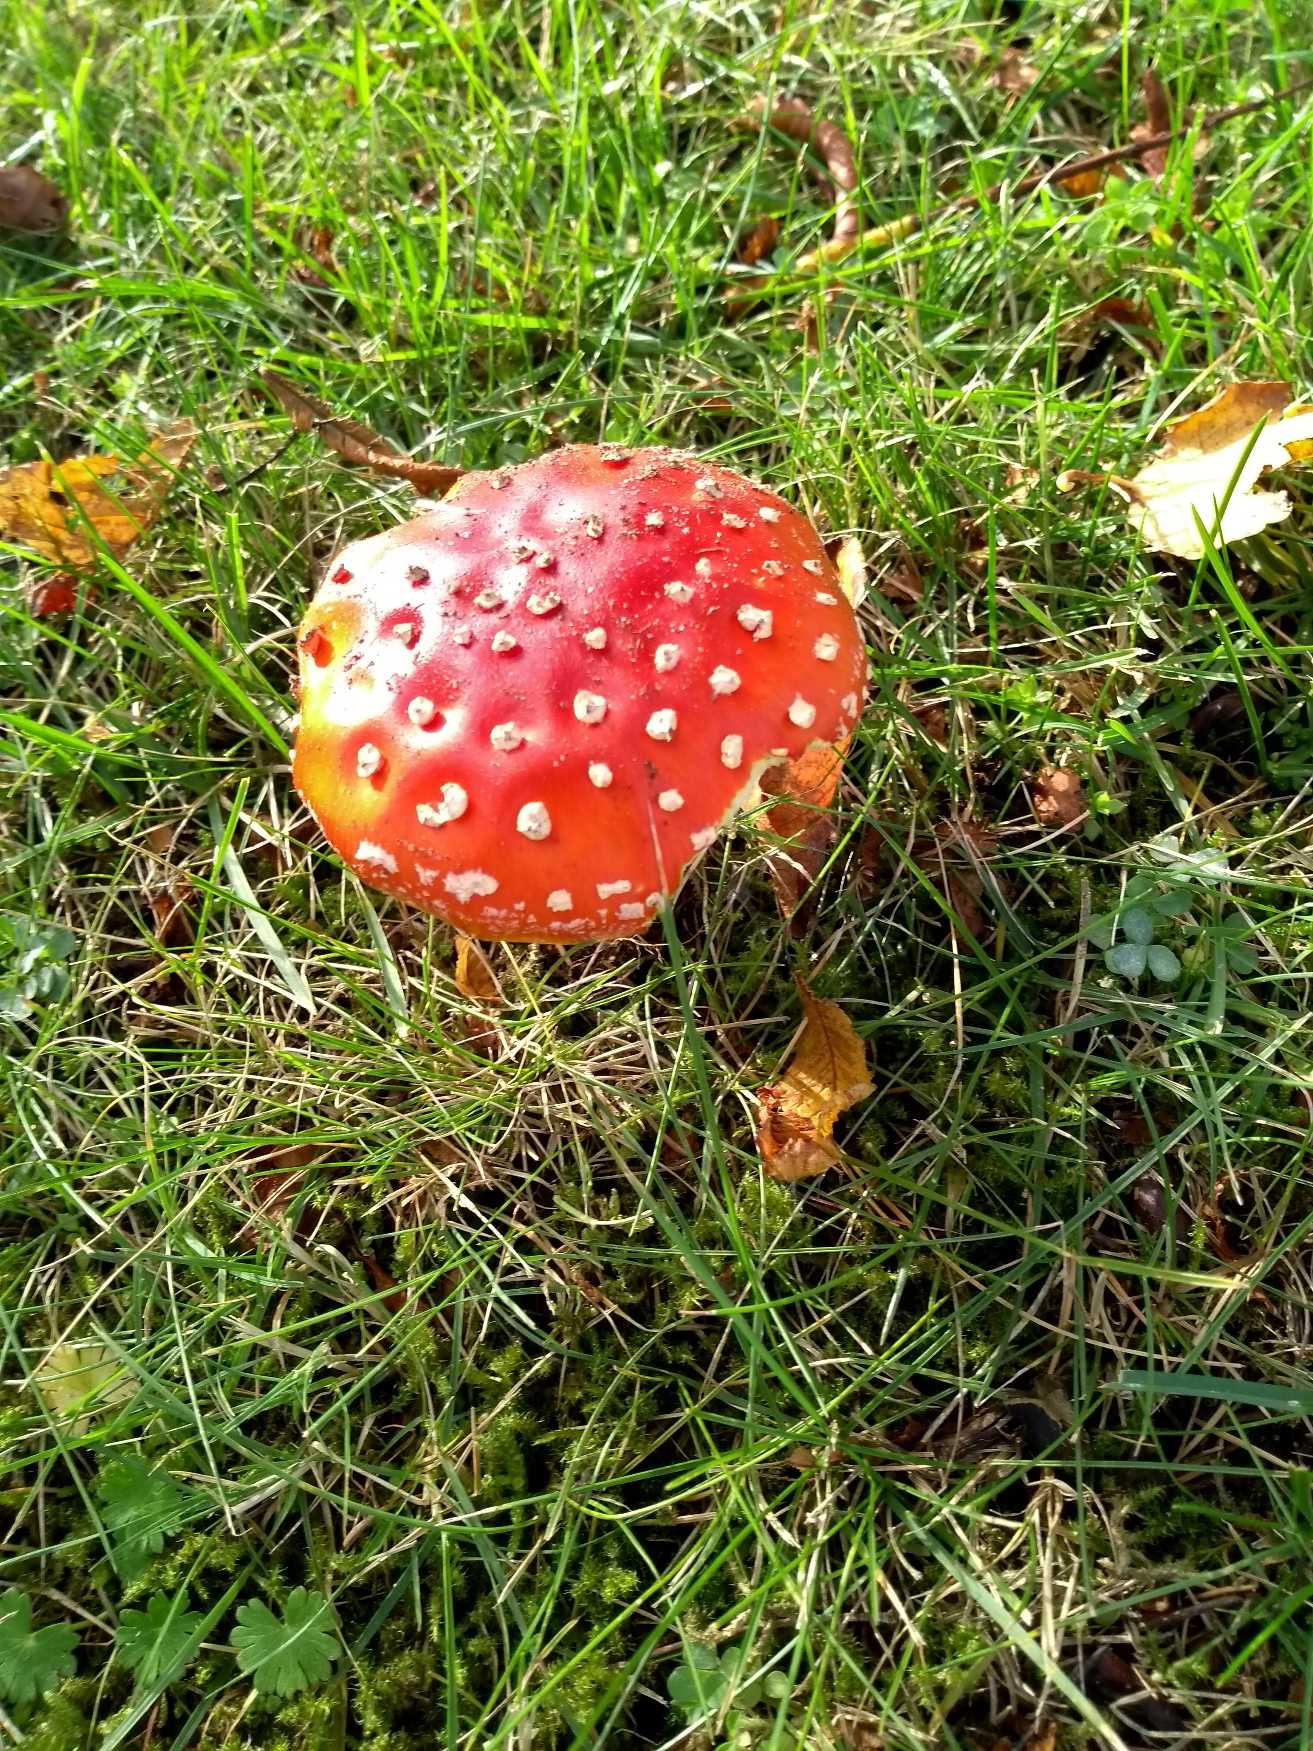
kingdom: Fungi
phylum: Basidiomycota
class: Agaricomycetes
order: Agaricales
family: Amanitaceae
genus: Amanita
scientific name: Amanita muscaria
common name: Rød fluesvamp
